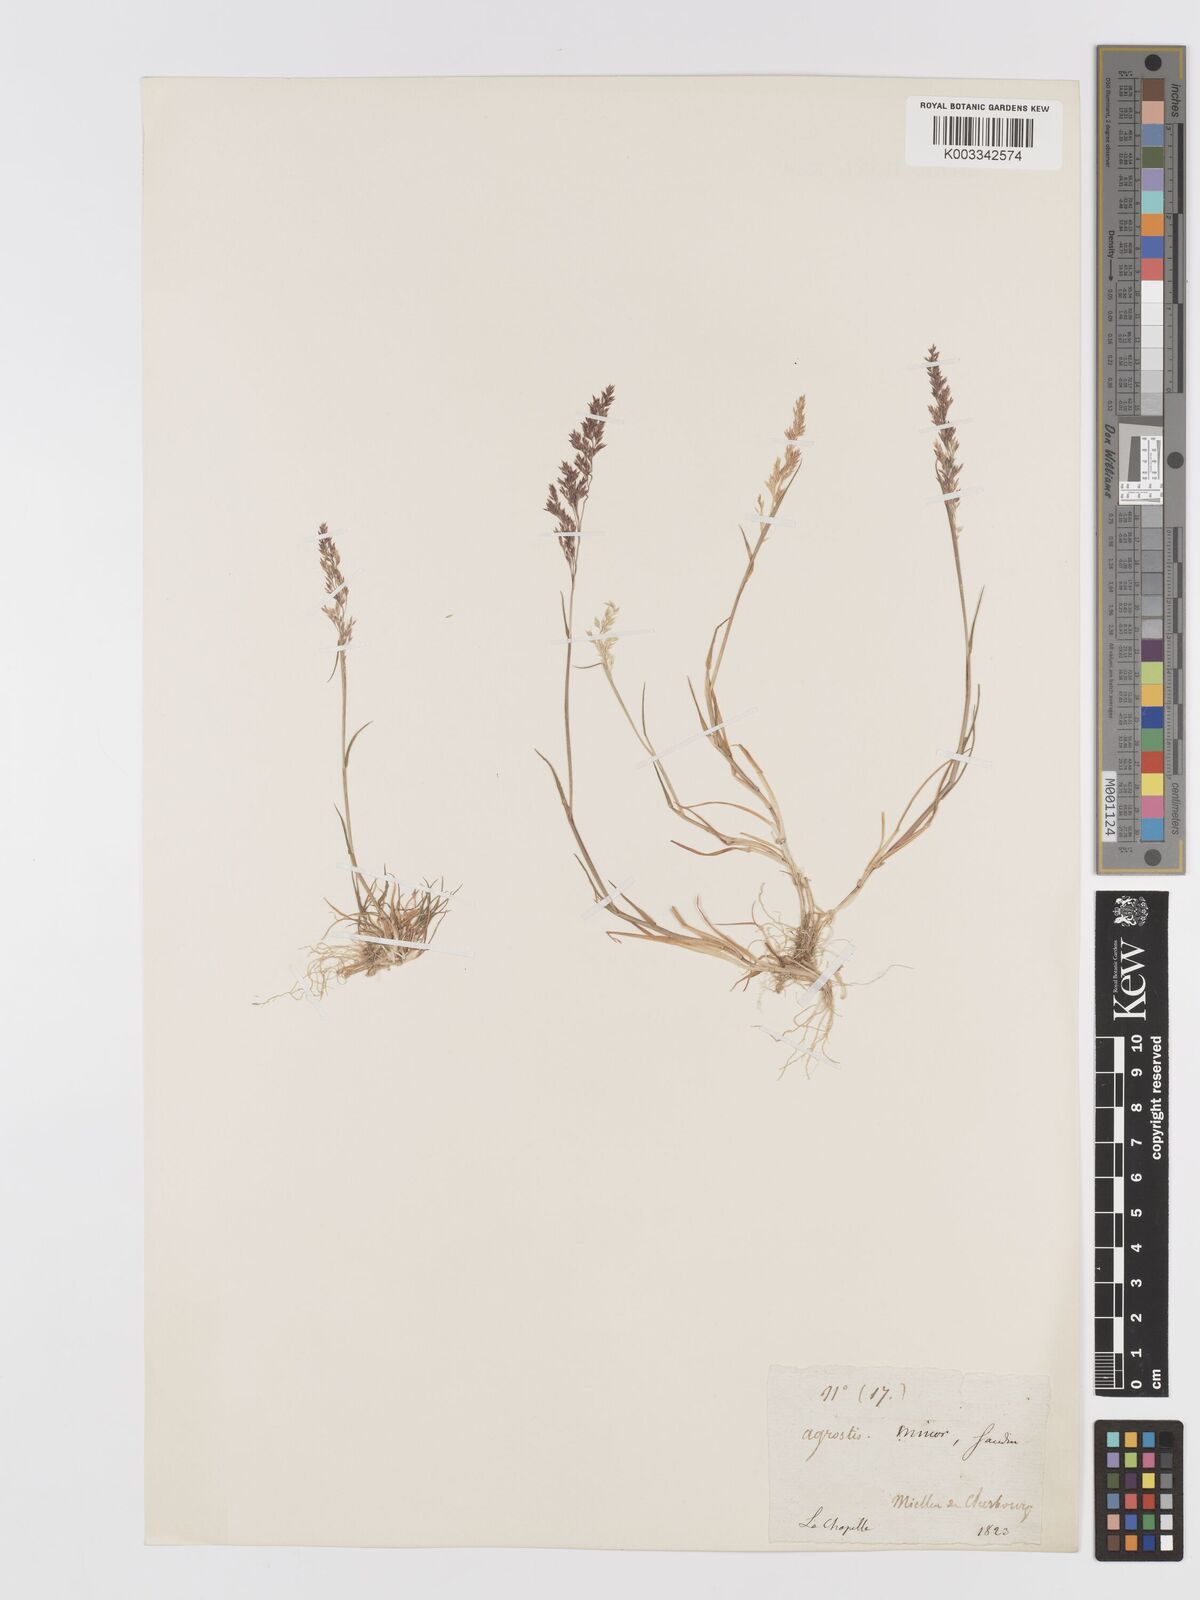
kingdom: Plantae
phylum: Tracheophyta
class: Liliopsida
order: Poales
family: Poaceae
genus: Agrostis
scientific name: Agrostis
